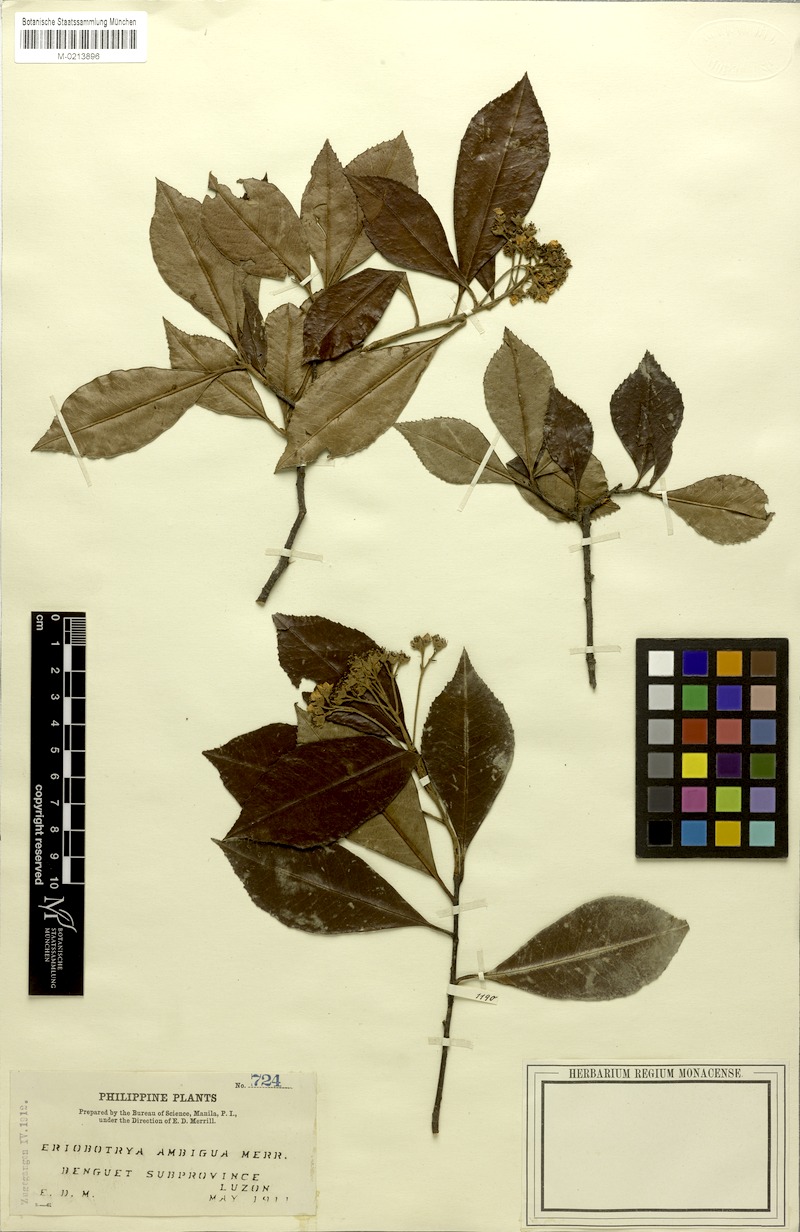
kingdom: Plantae
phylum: Tracheophyta
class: Magnoliopsida
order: Rosales
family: Rosaceae
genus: Stranvaesia
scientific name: Stranvaesia nussia
